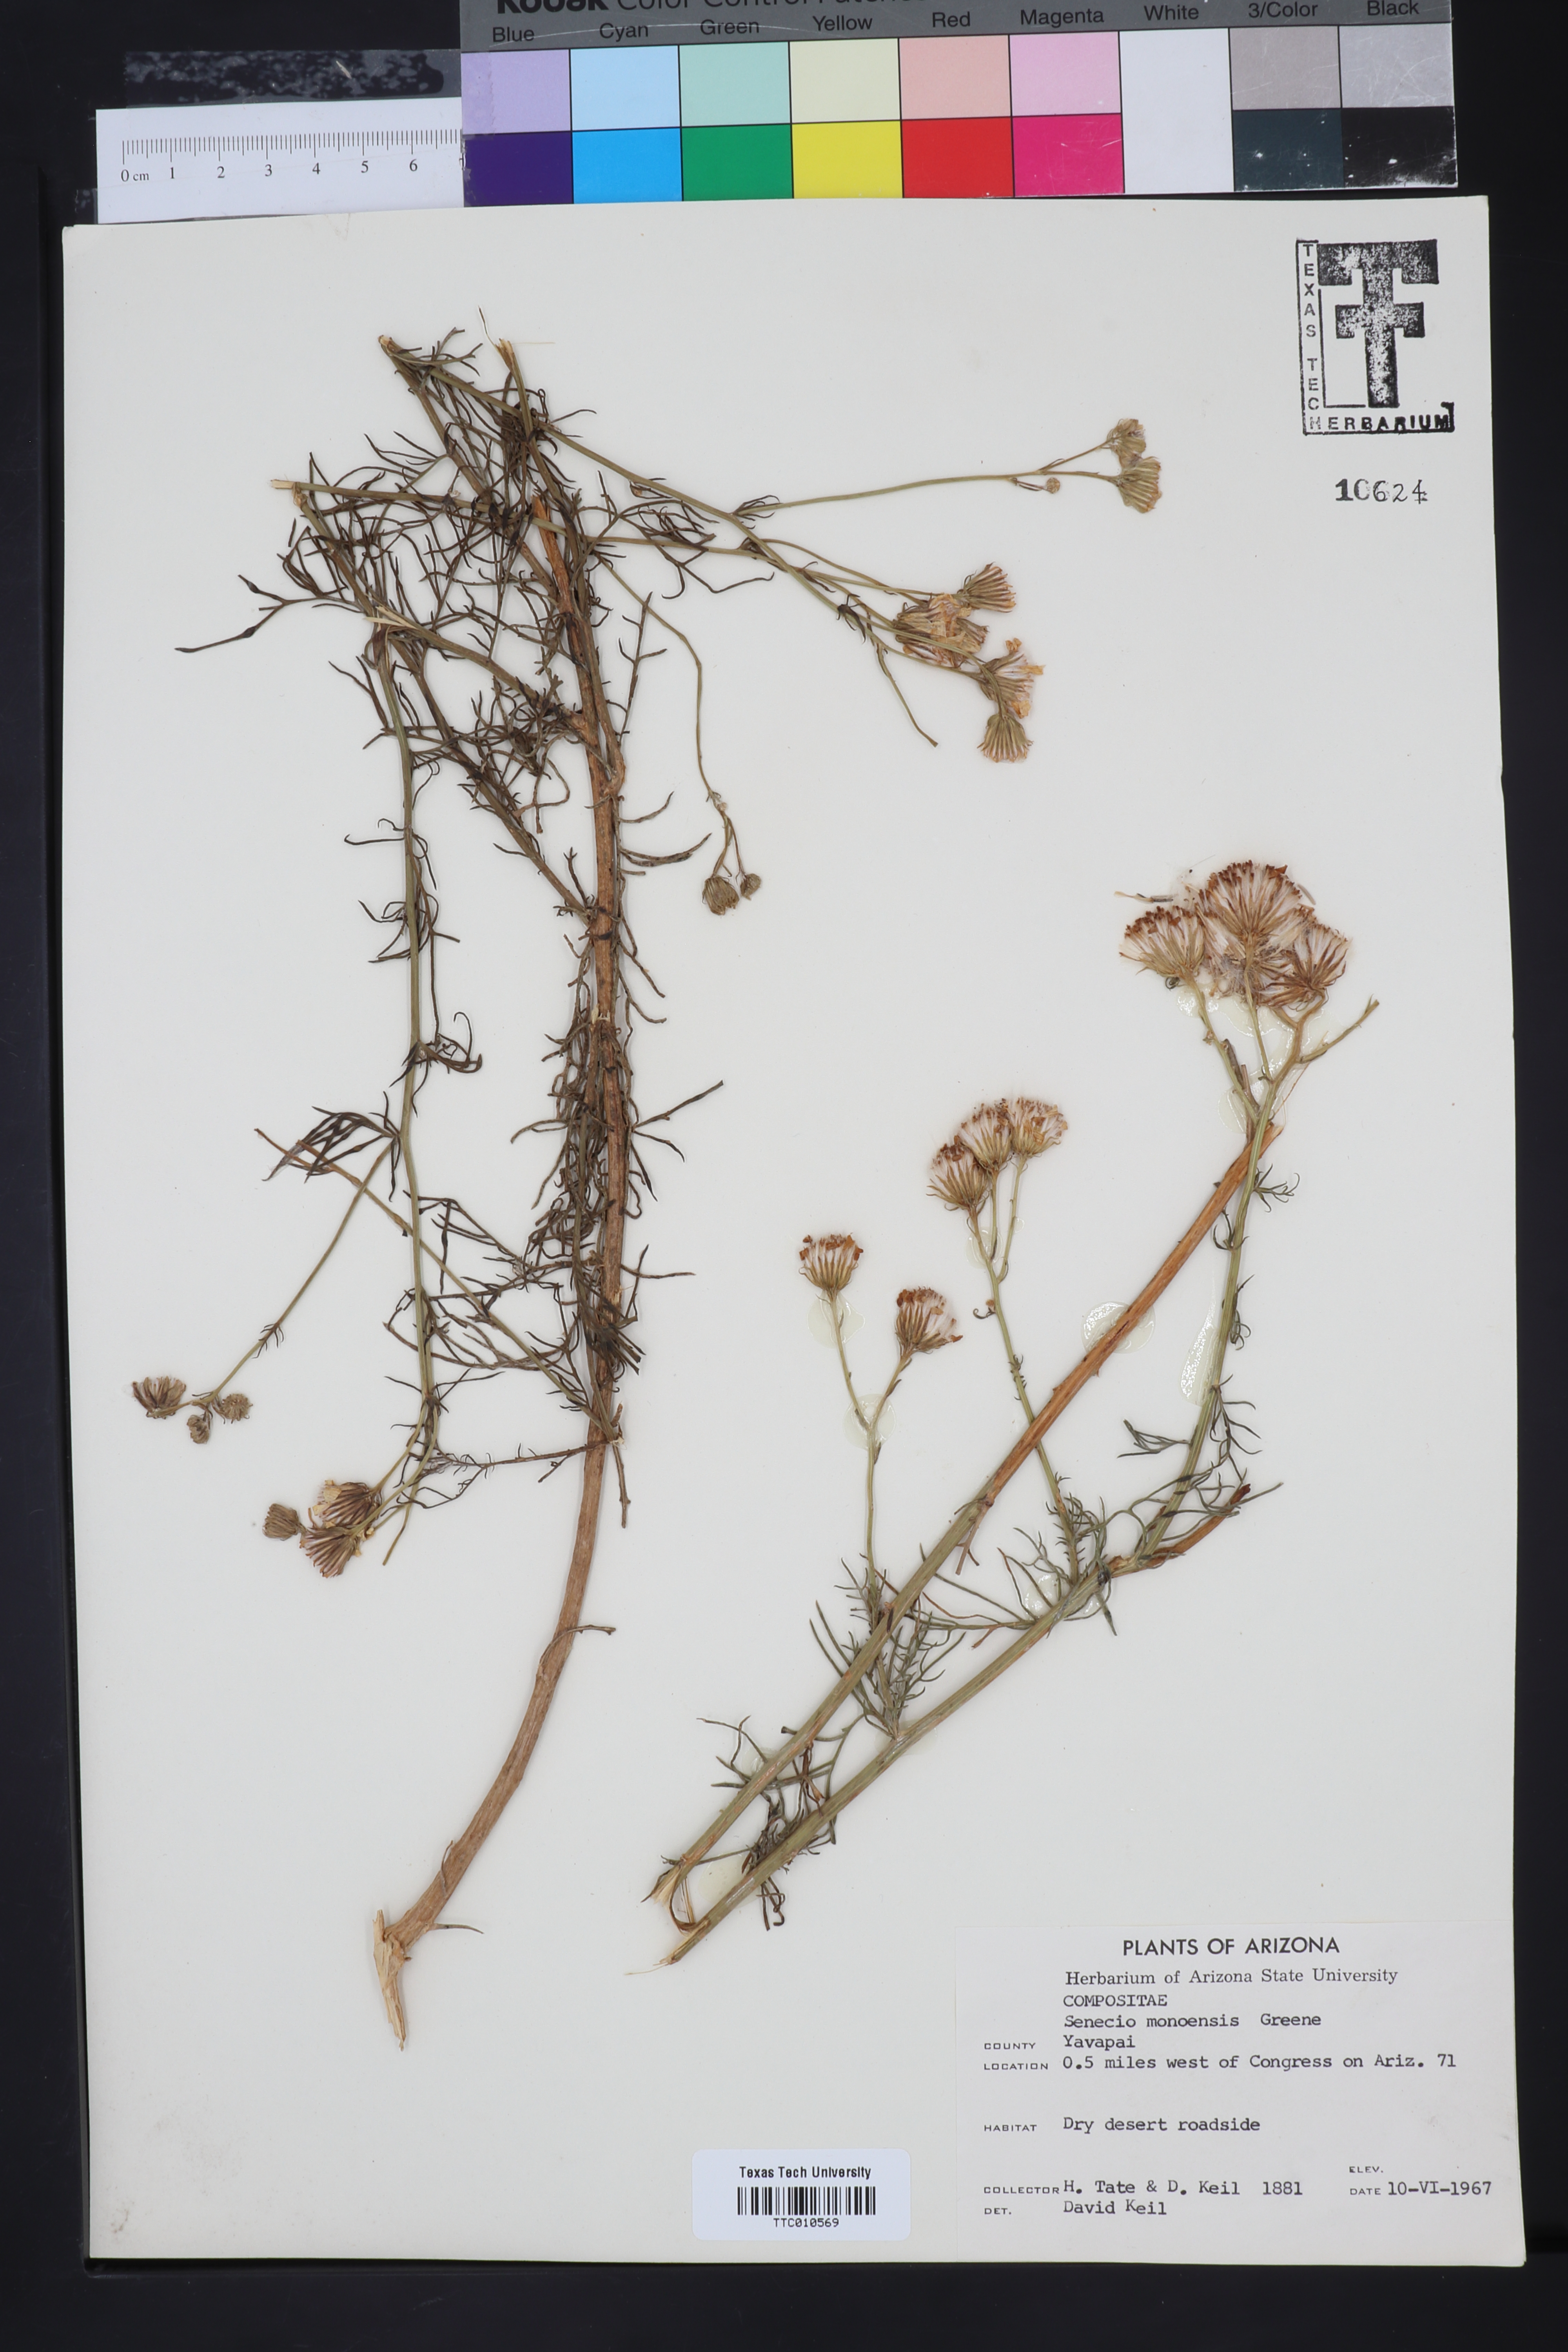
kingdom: Plantae
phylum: Tracheophyta
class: Magnoliopsida
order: Asterales
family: Asteraceae
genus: Senecio
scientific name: Senecio flaccidus
